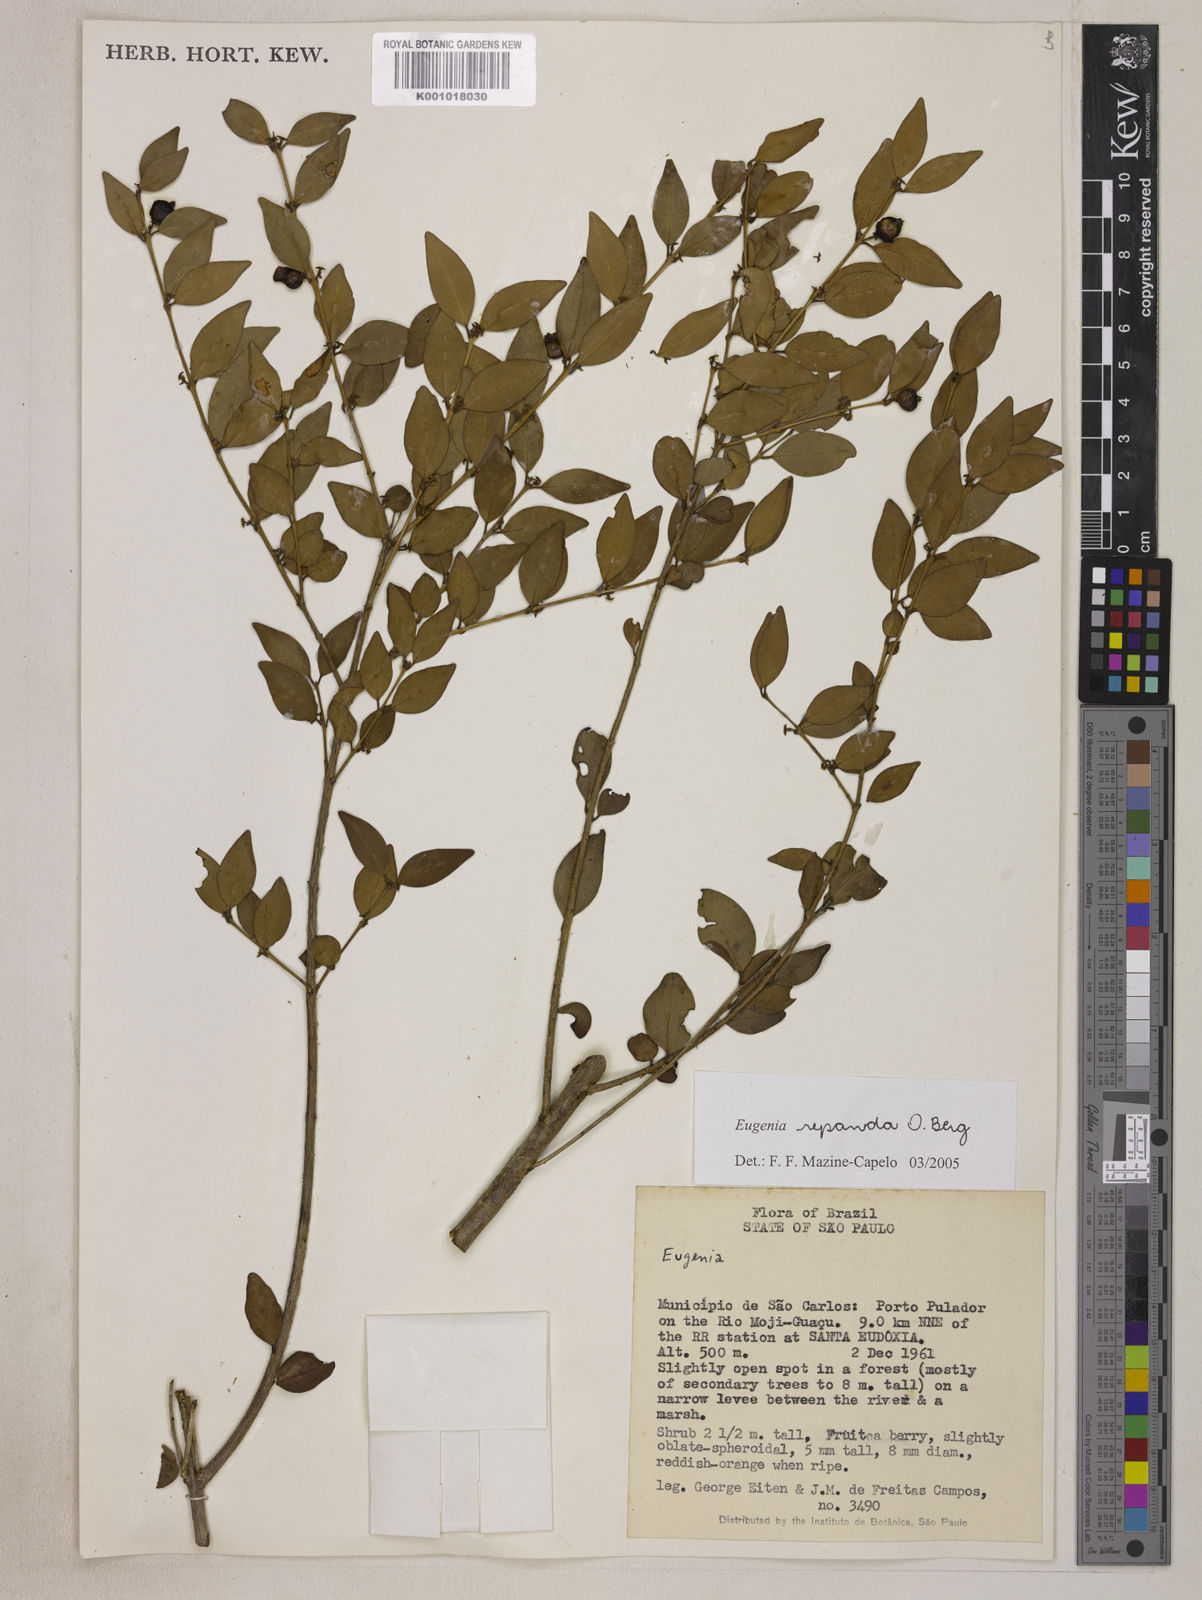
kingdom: Plantae
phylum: Tracheophyta
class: Magnoliopsida
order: Myrtales
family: Myrtaceae
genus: Eugenia
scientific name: Eugenia repanda
